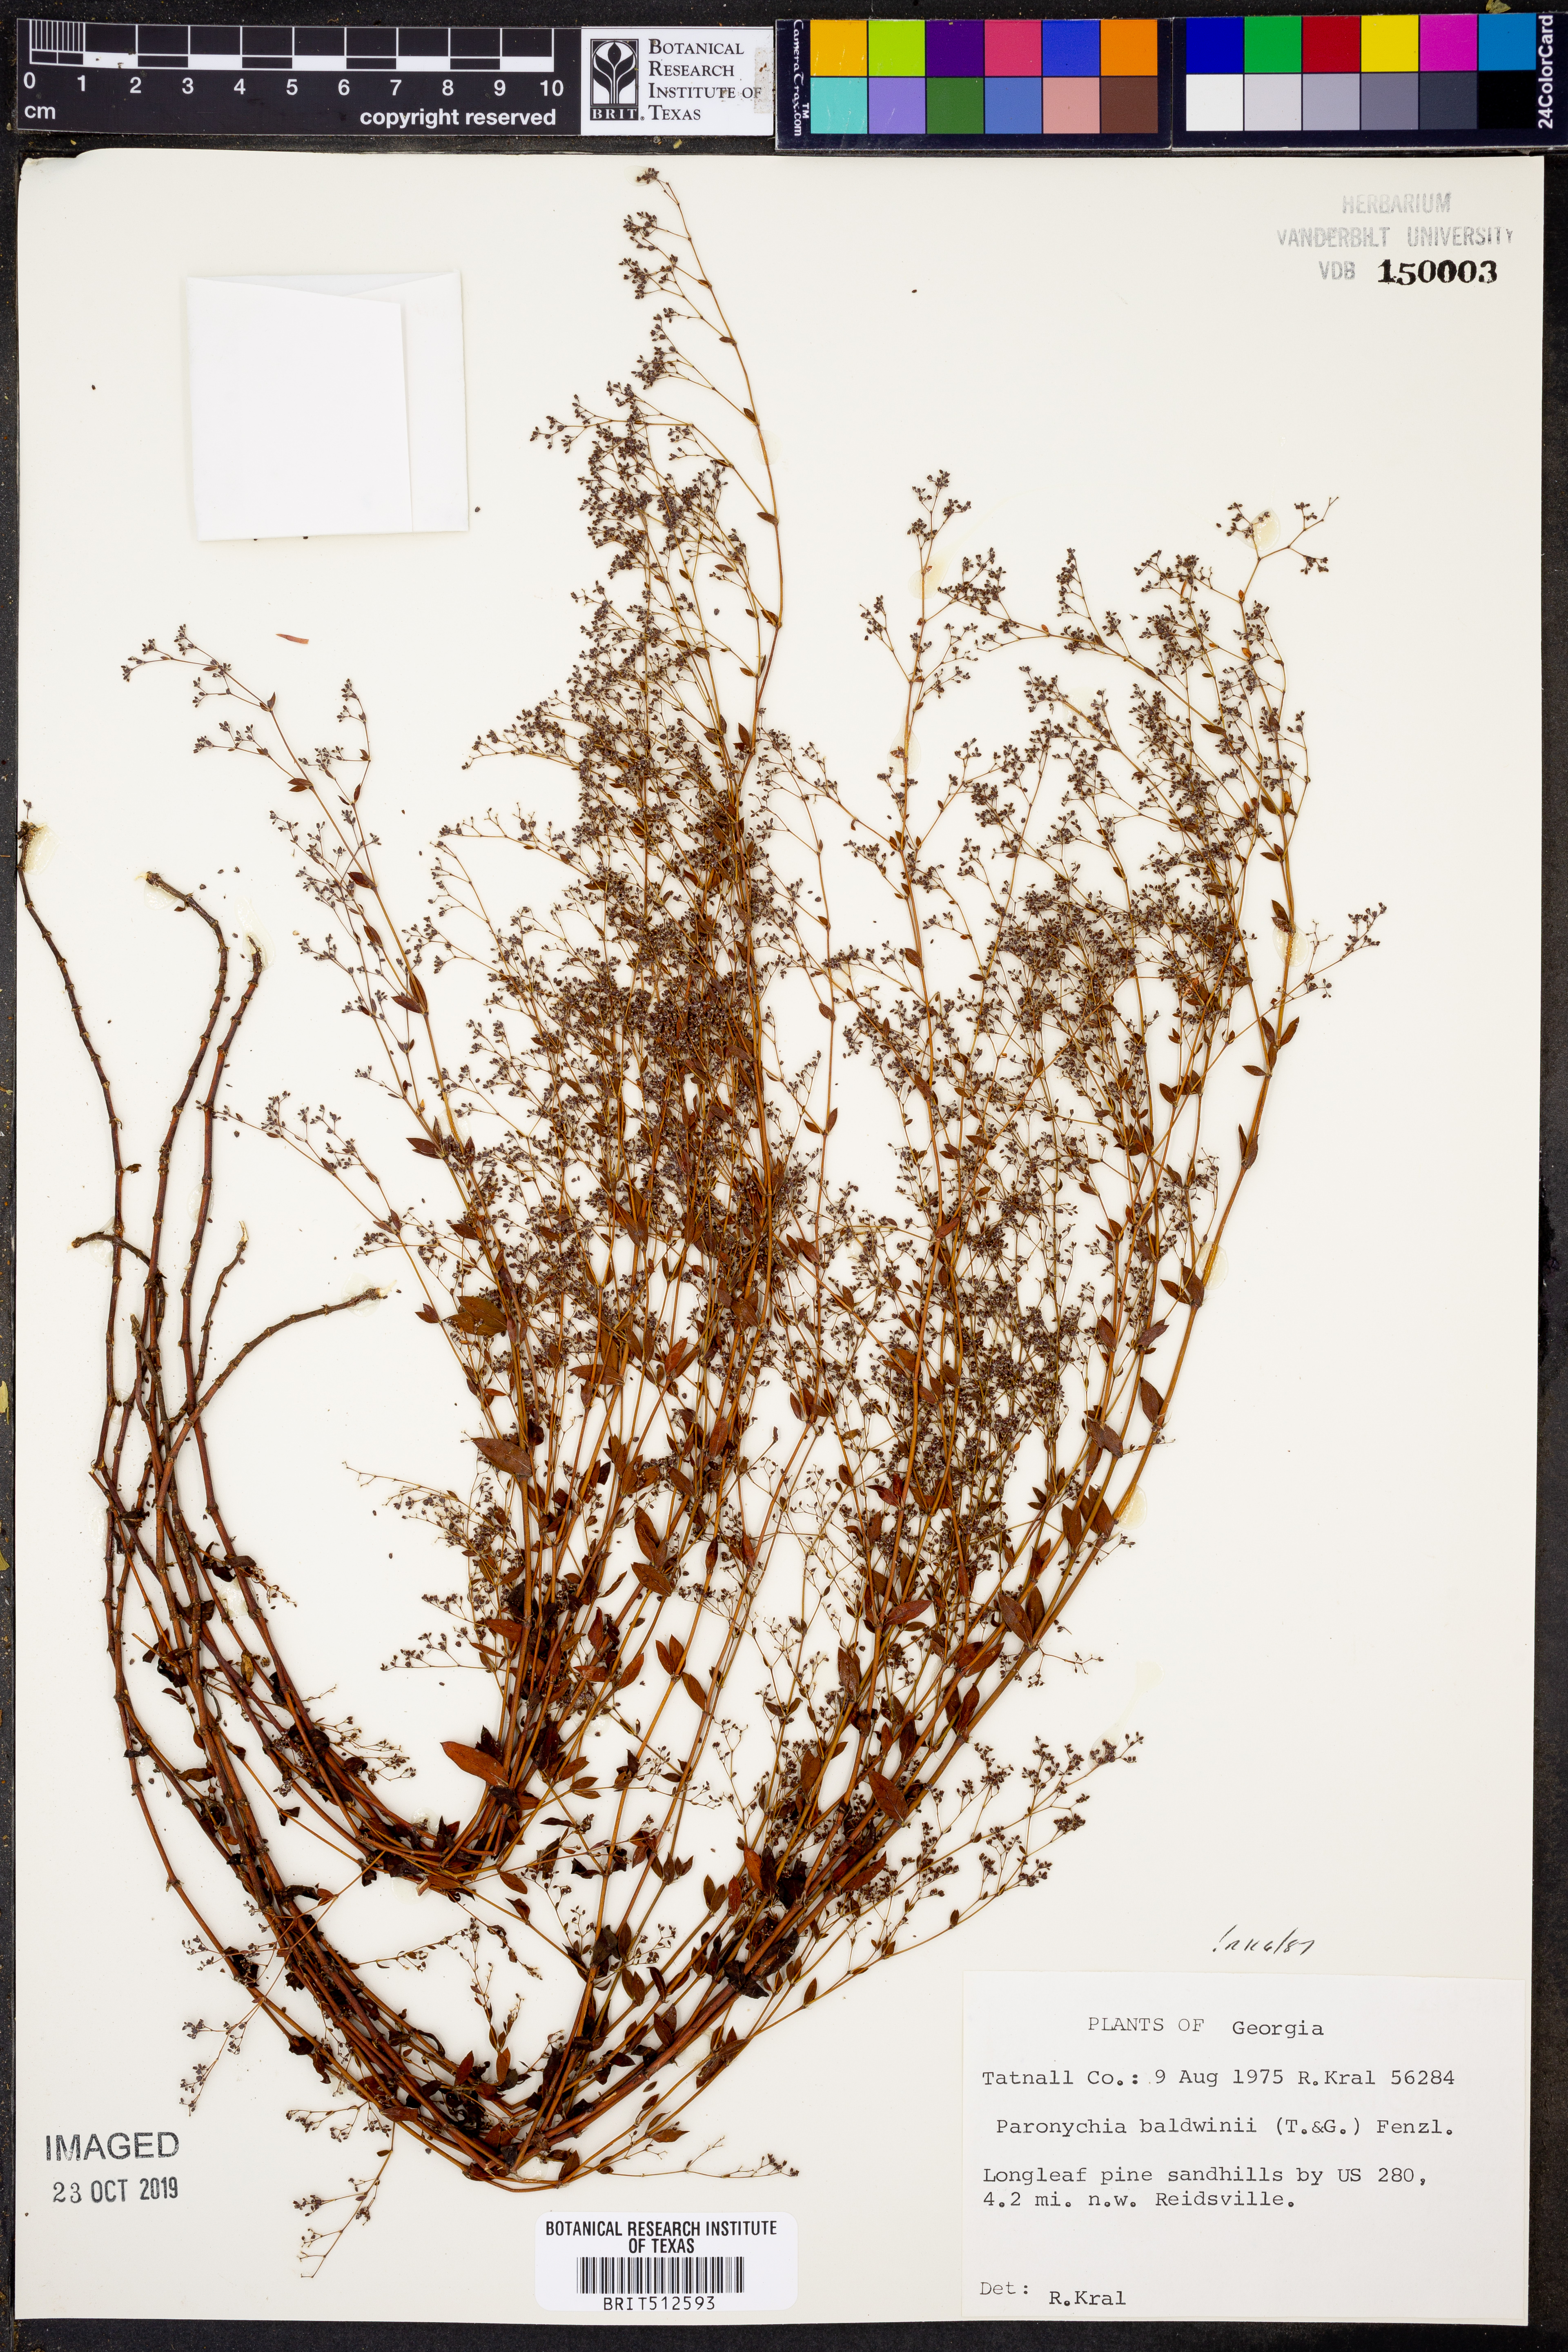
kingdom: Plantae
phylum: Tracheophyta
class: Magnoliopsida
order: Caryophyllales
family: Caryophyllaceae
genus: Paronychia
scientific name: Paronychia baldwinii
